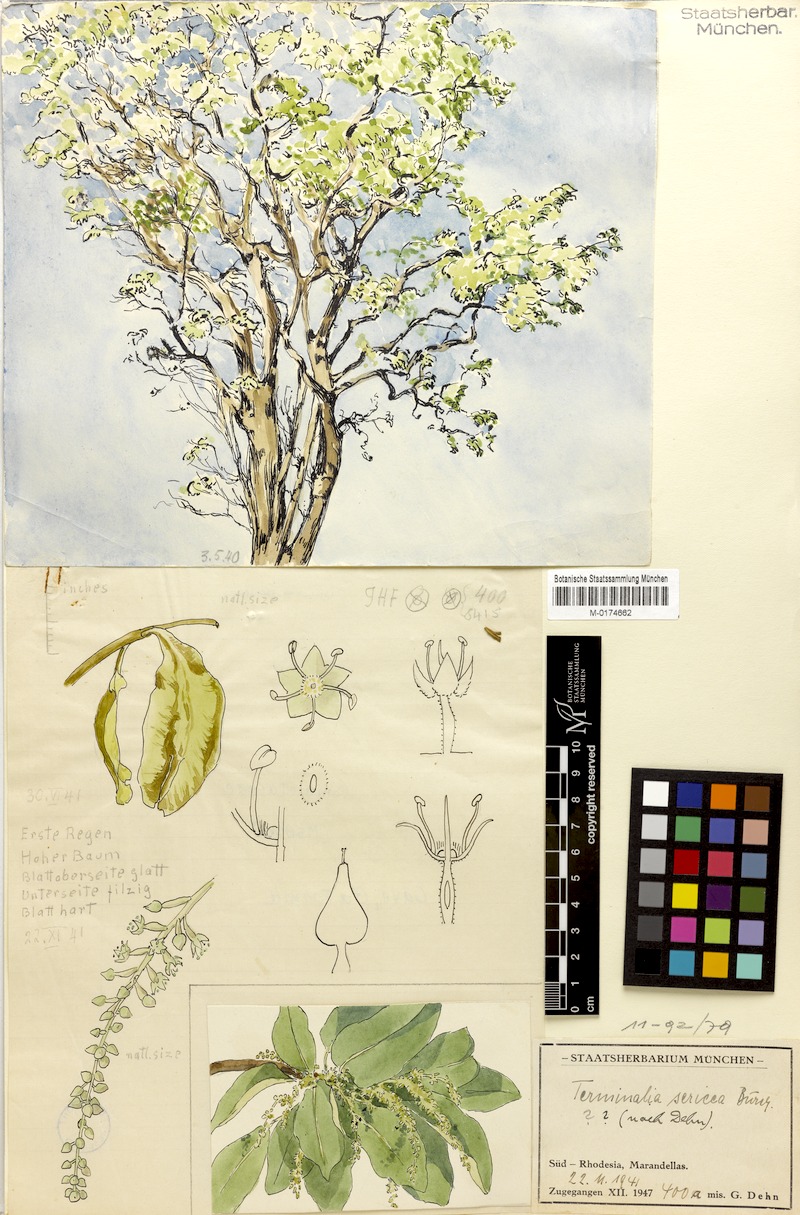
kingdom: Plantae
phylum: Tracheophyta
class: Magnoliopsida
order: Myrtales
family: Combretaceae
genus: Terminalia
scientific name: Terminalia sericea
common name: Clusterleaf
